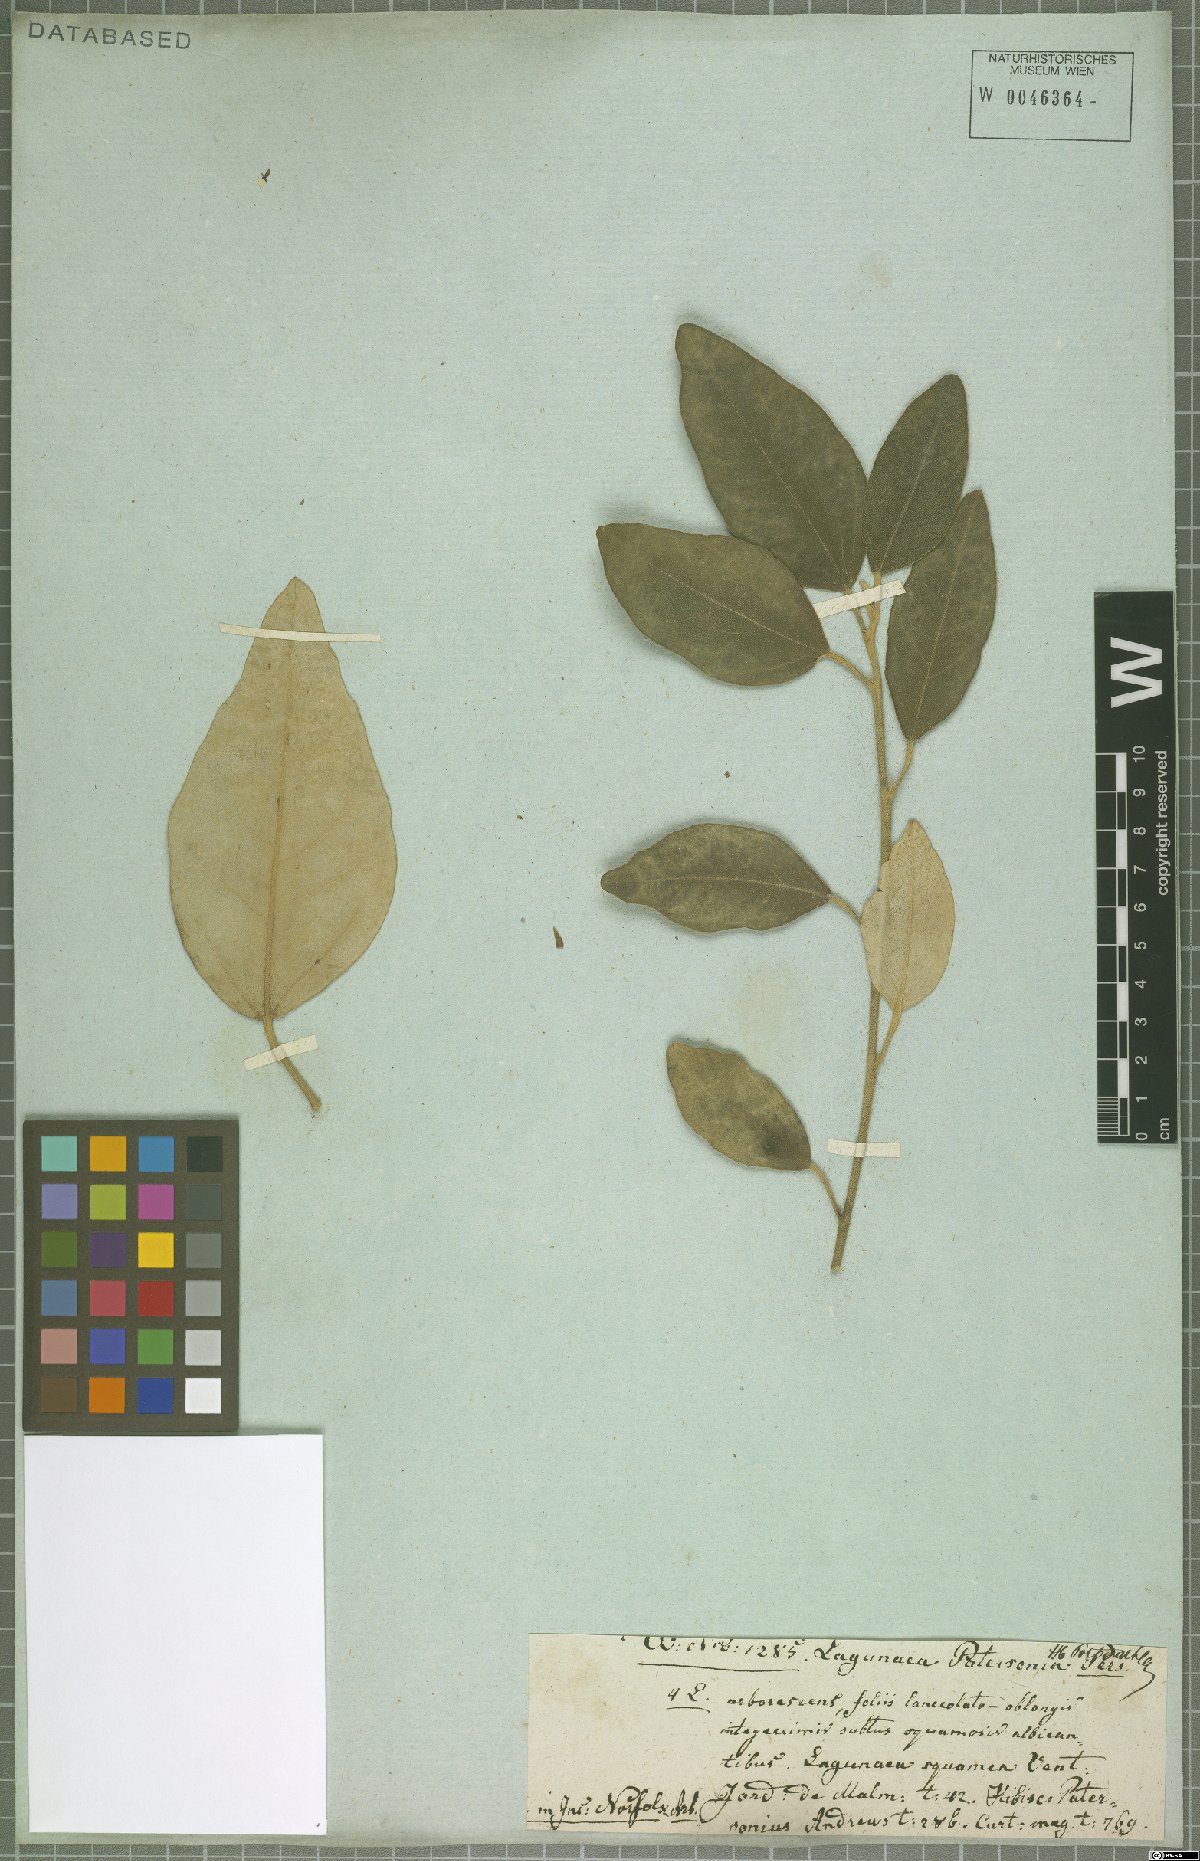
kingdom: Plantae
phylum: Tracheophyta
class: Magnoliopsida
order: Malvales
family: Malvaceae
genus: Lagunaria
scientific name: Lagunaria patersonia
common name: Cow itch tree
